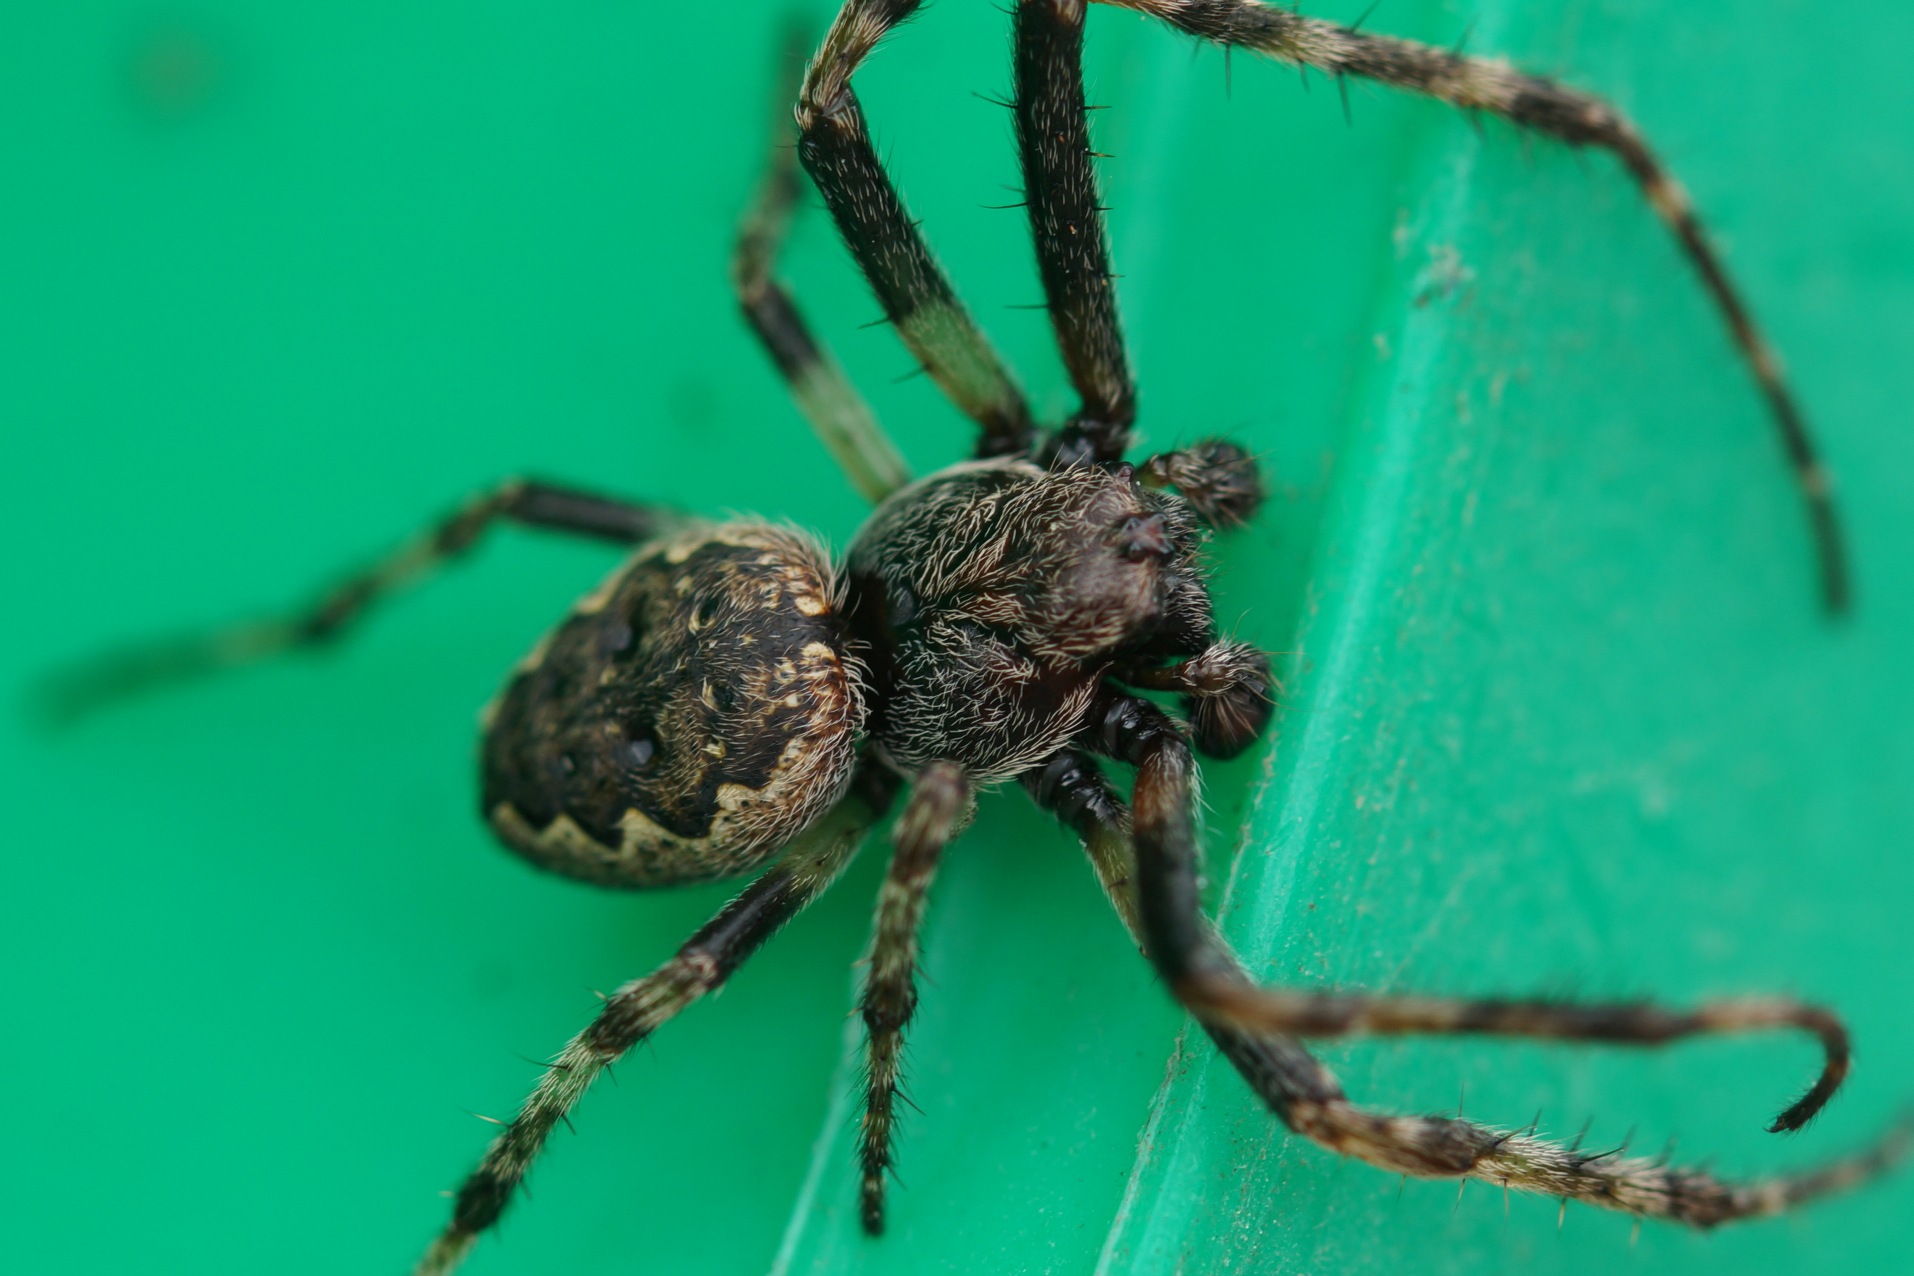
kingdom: Animalia
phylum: Arthropoda
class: Arachnida
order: Araneae
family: Araneidae
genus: Nuctenea
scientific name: Nuctenea umbratica
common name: Flad hjulspinder
